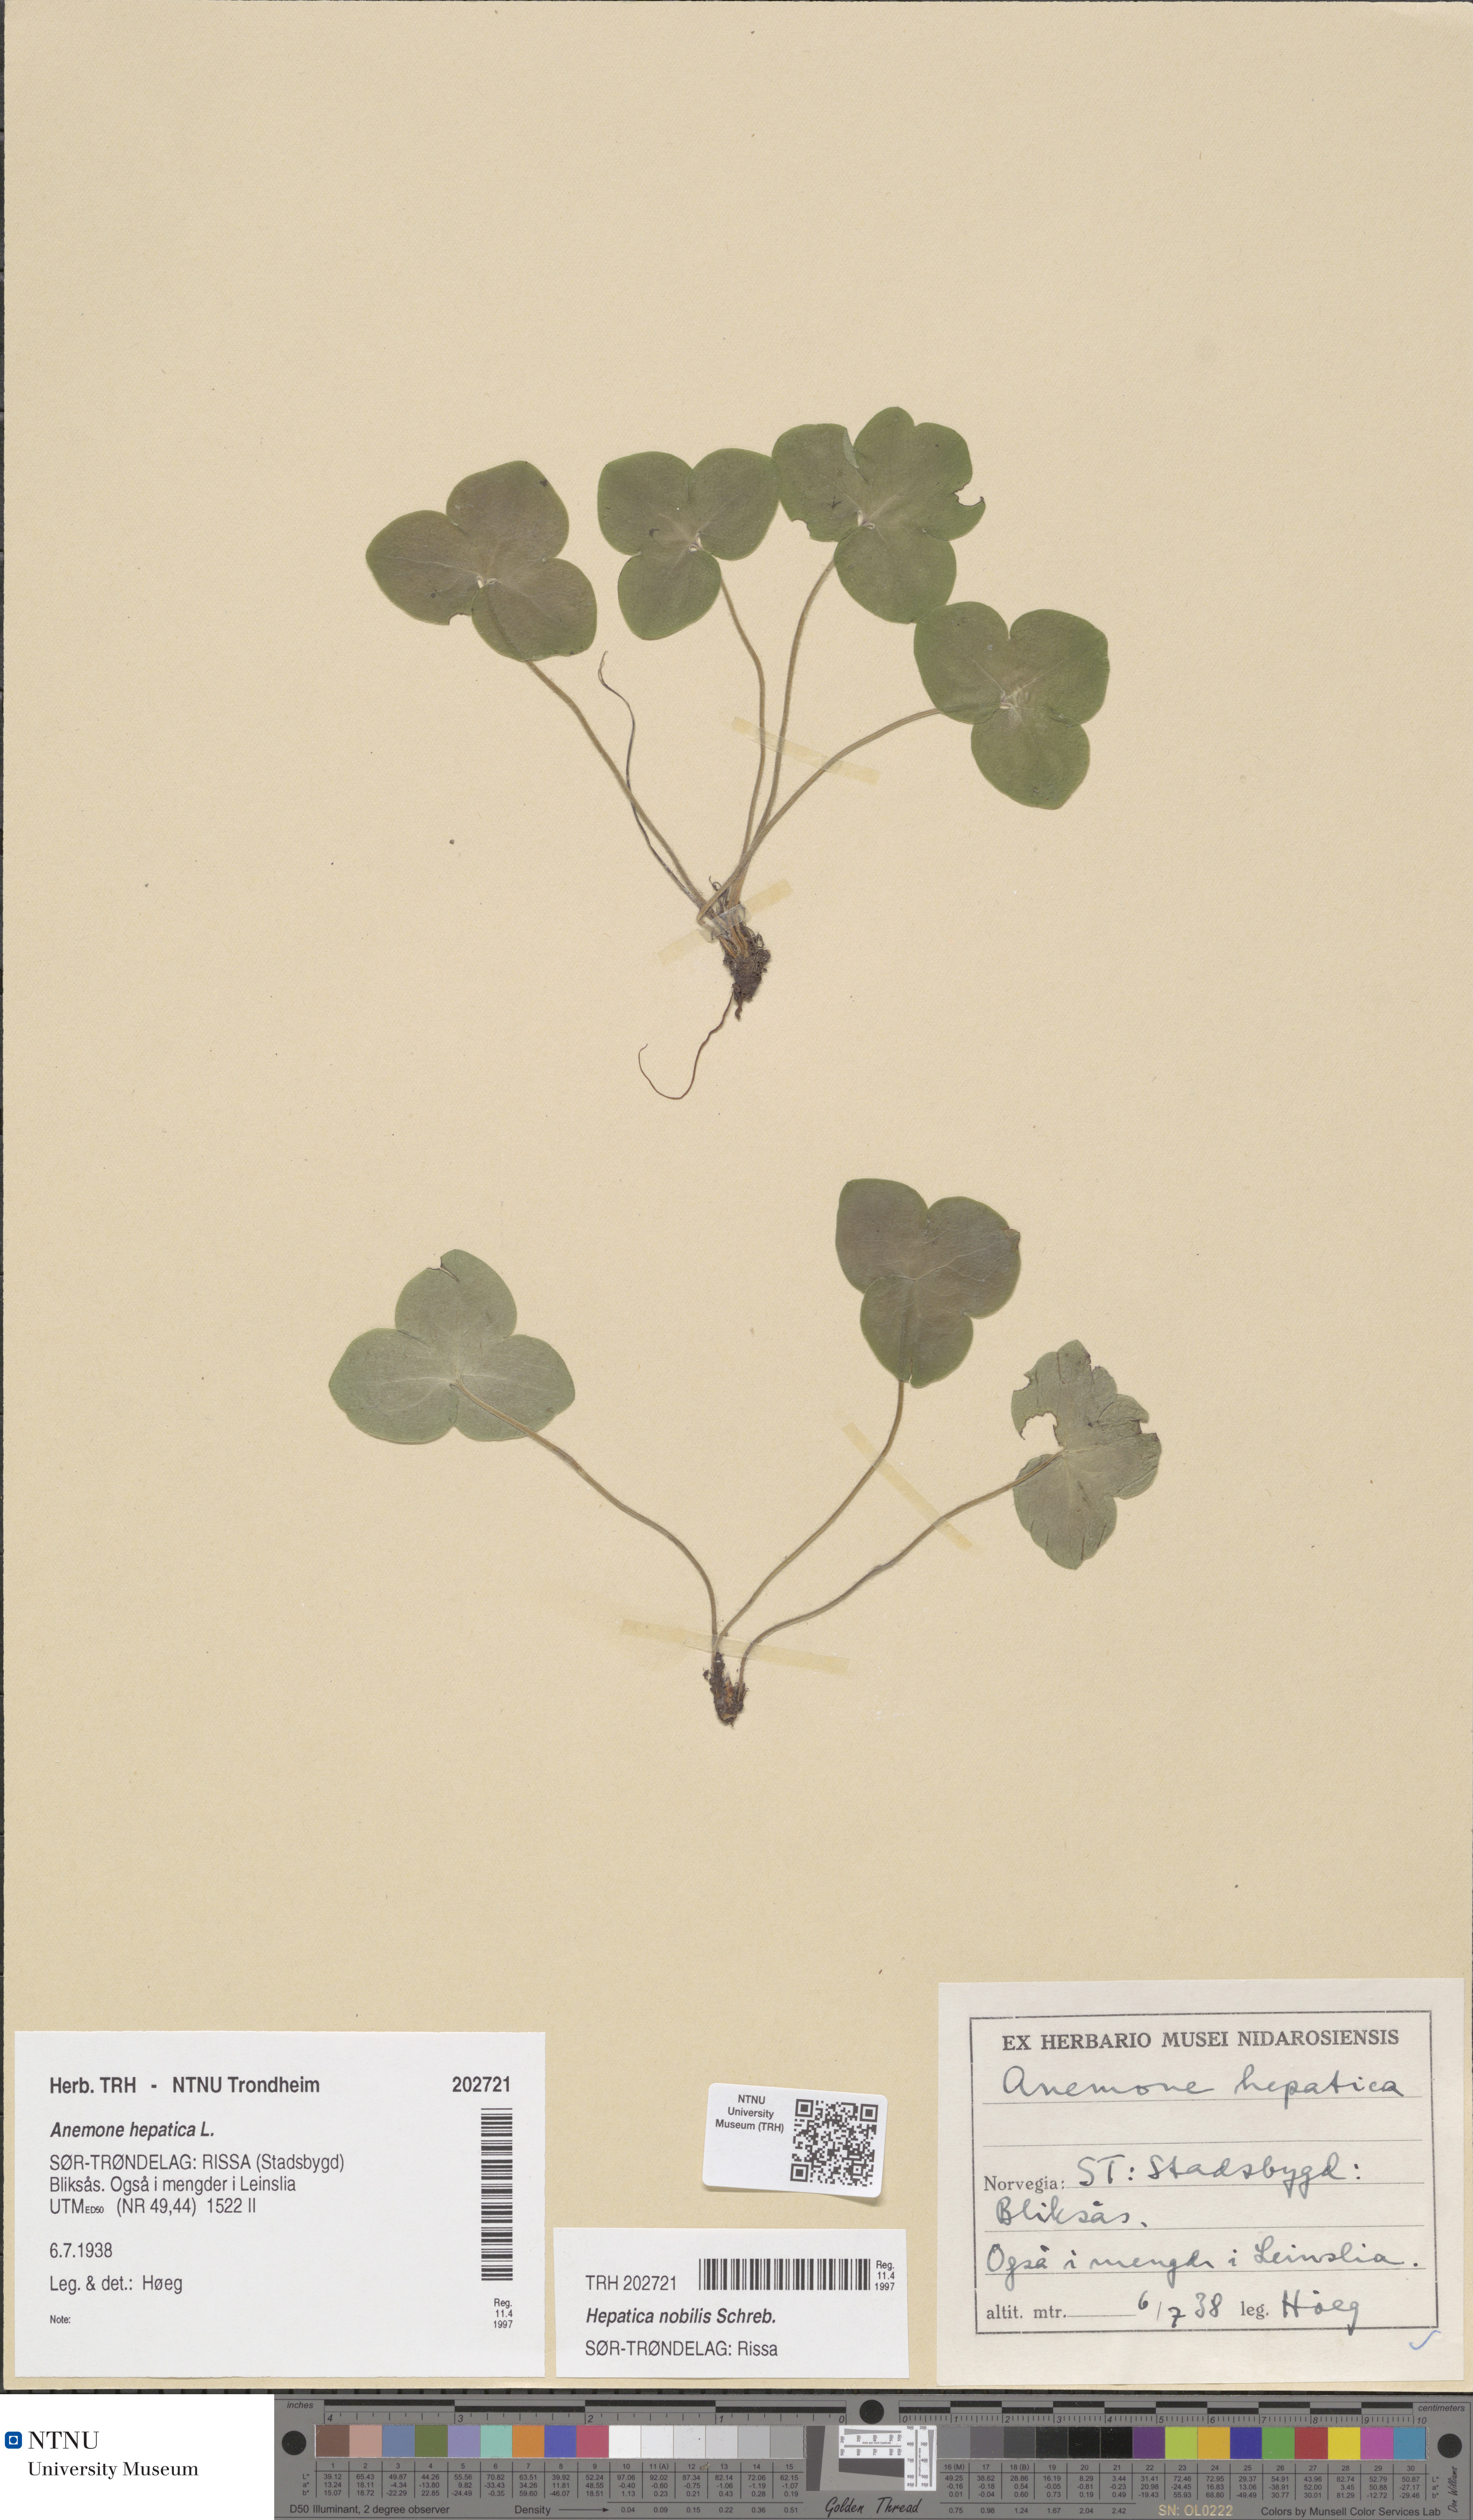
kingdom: Plantae
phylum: Tracheophyta
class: Magnoliopsida
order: Ranunculales
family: Ranunculaceae
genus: Hepatica
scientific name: Hepatica nobilis
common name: Liverleaf
